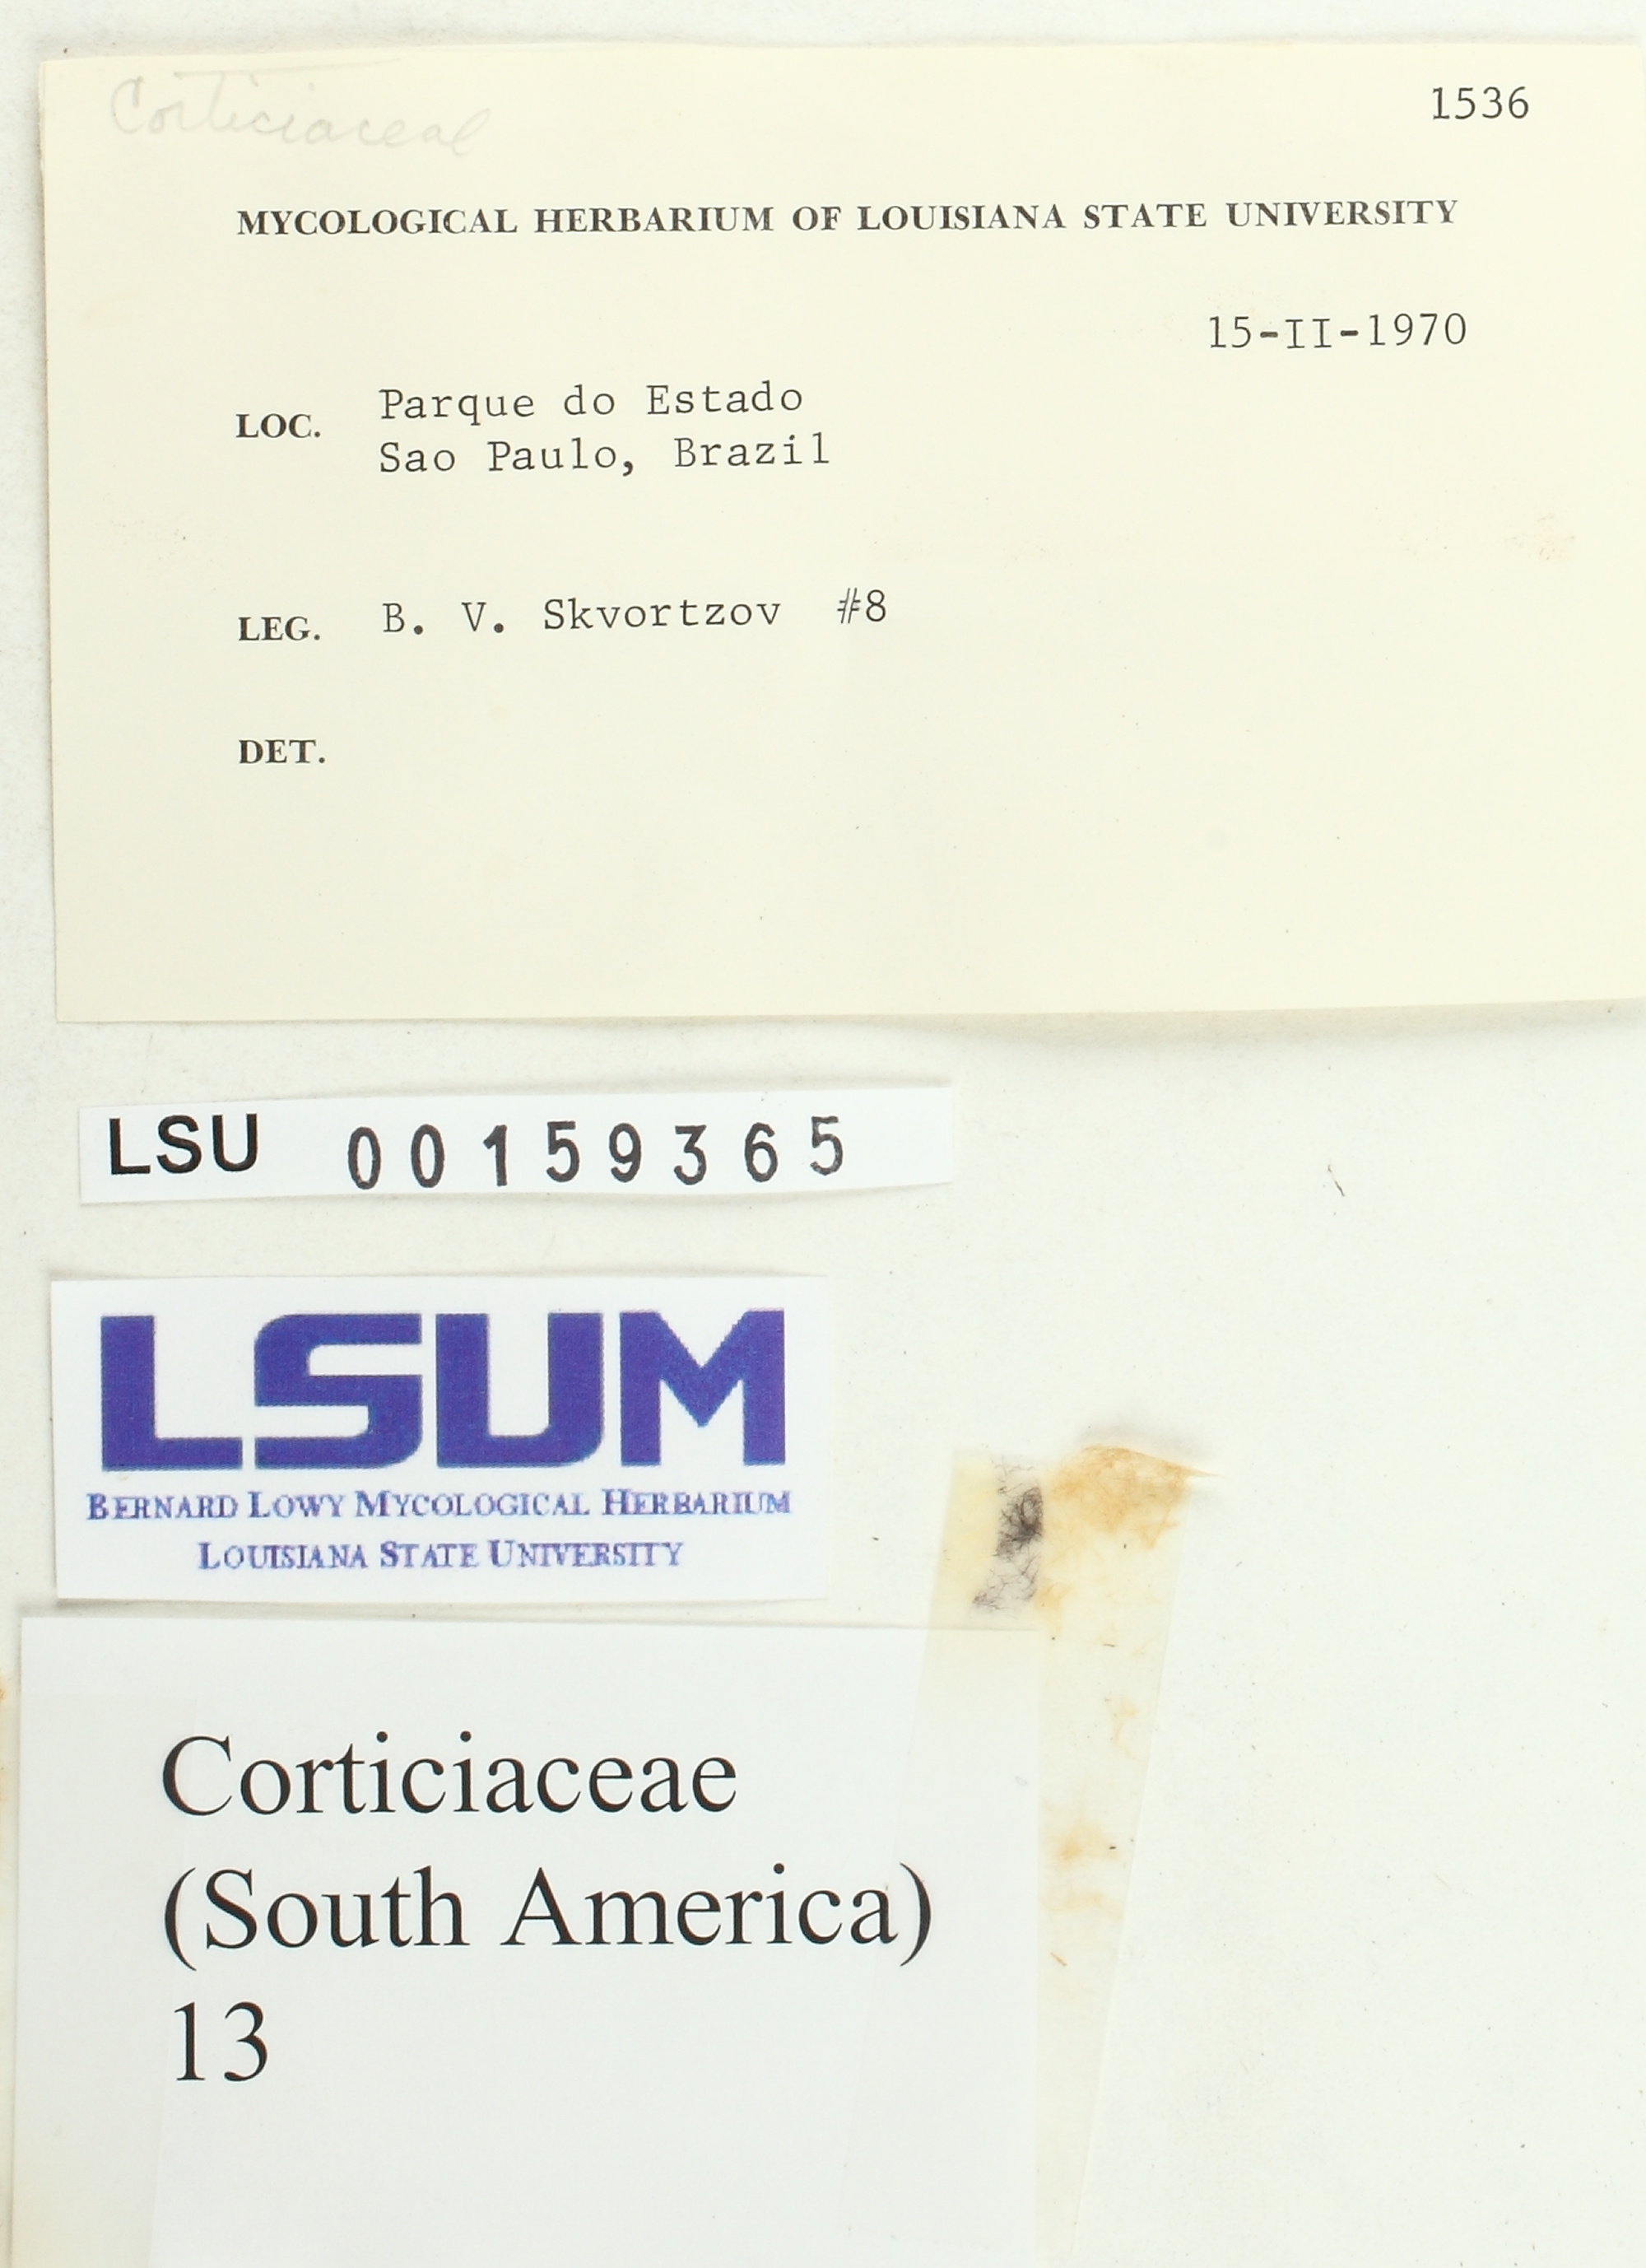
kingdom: Fungi
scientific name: Fungi
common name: Fungi
